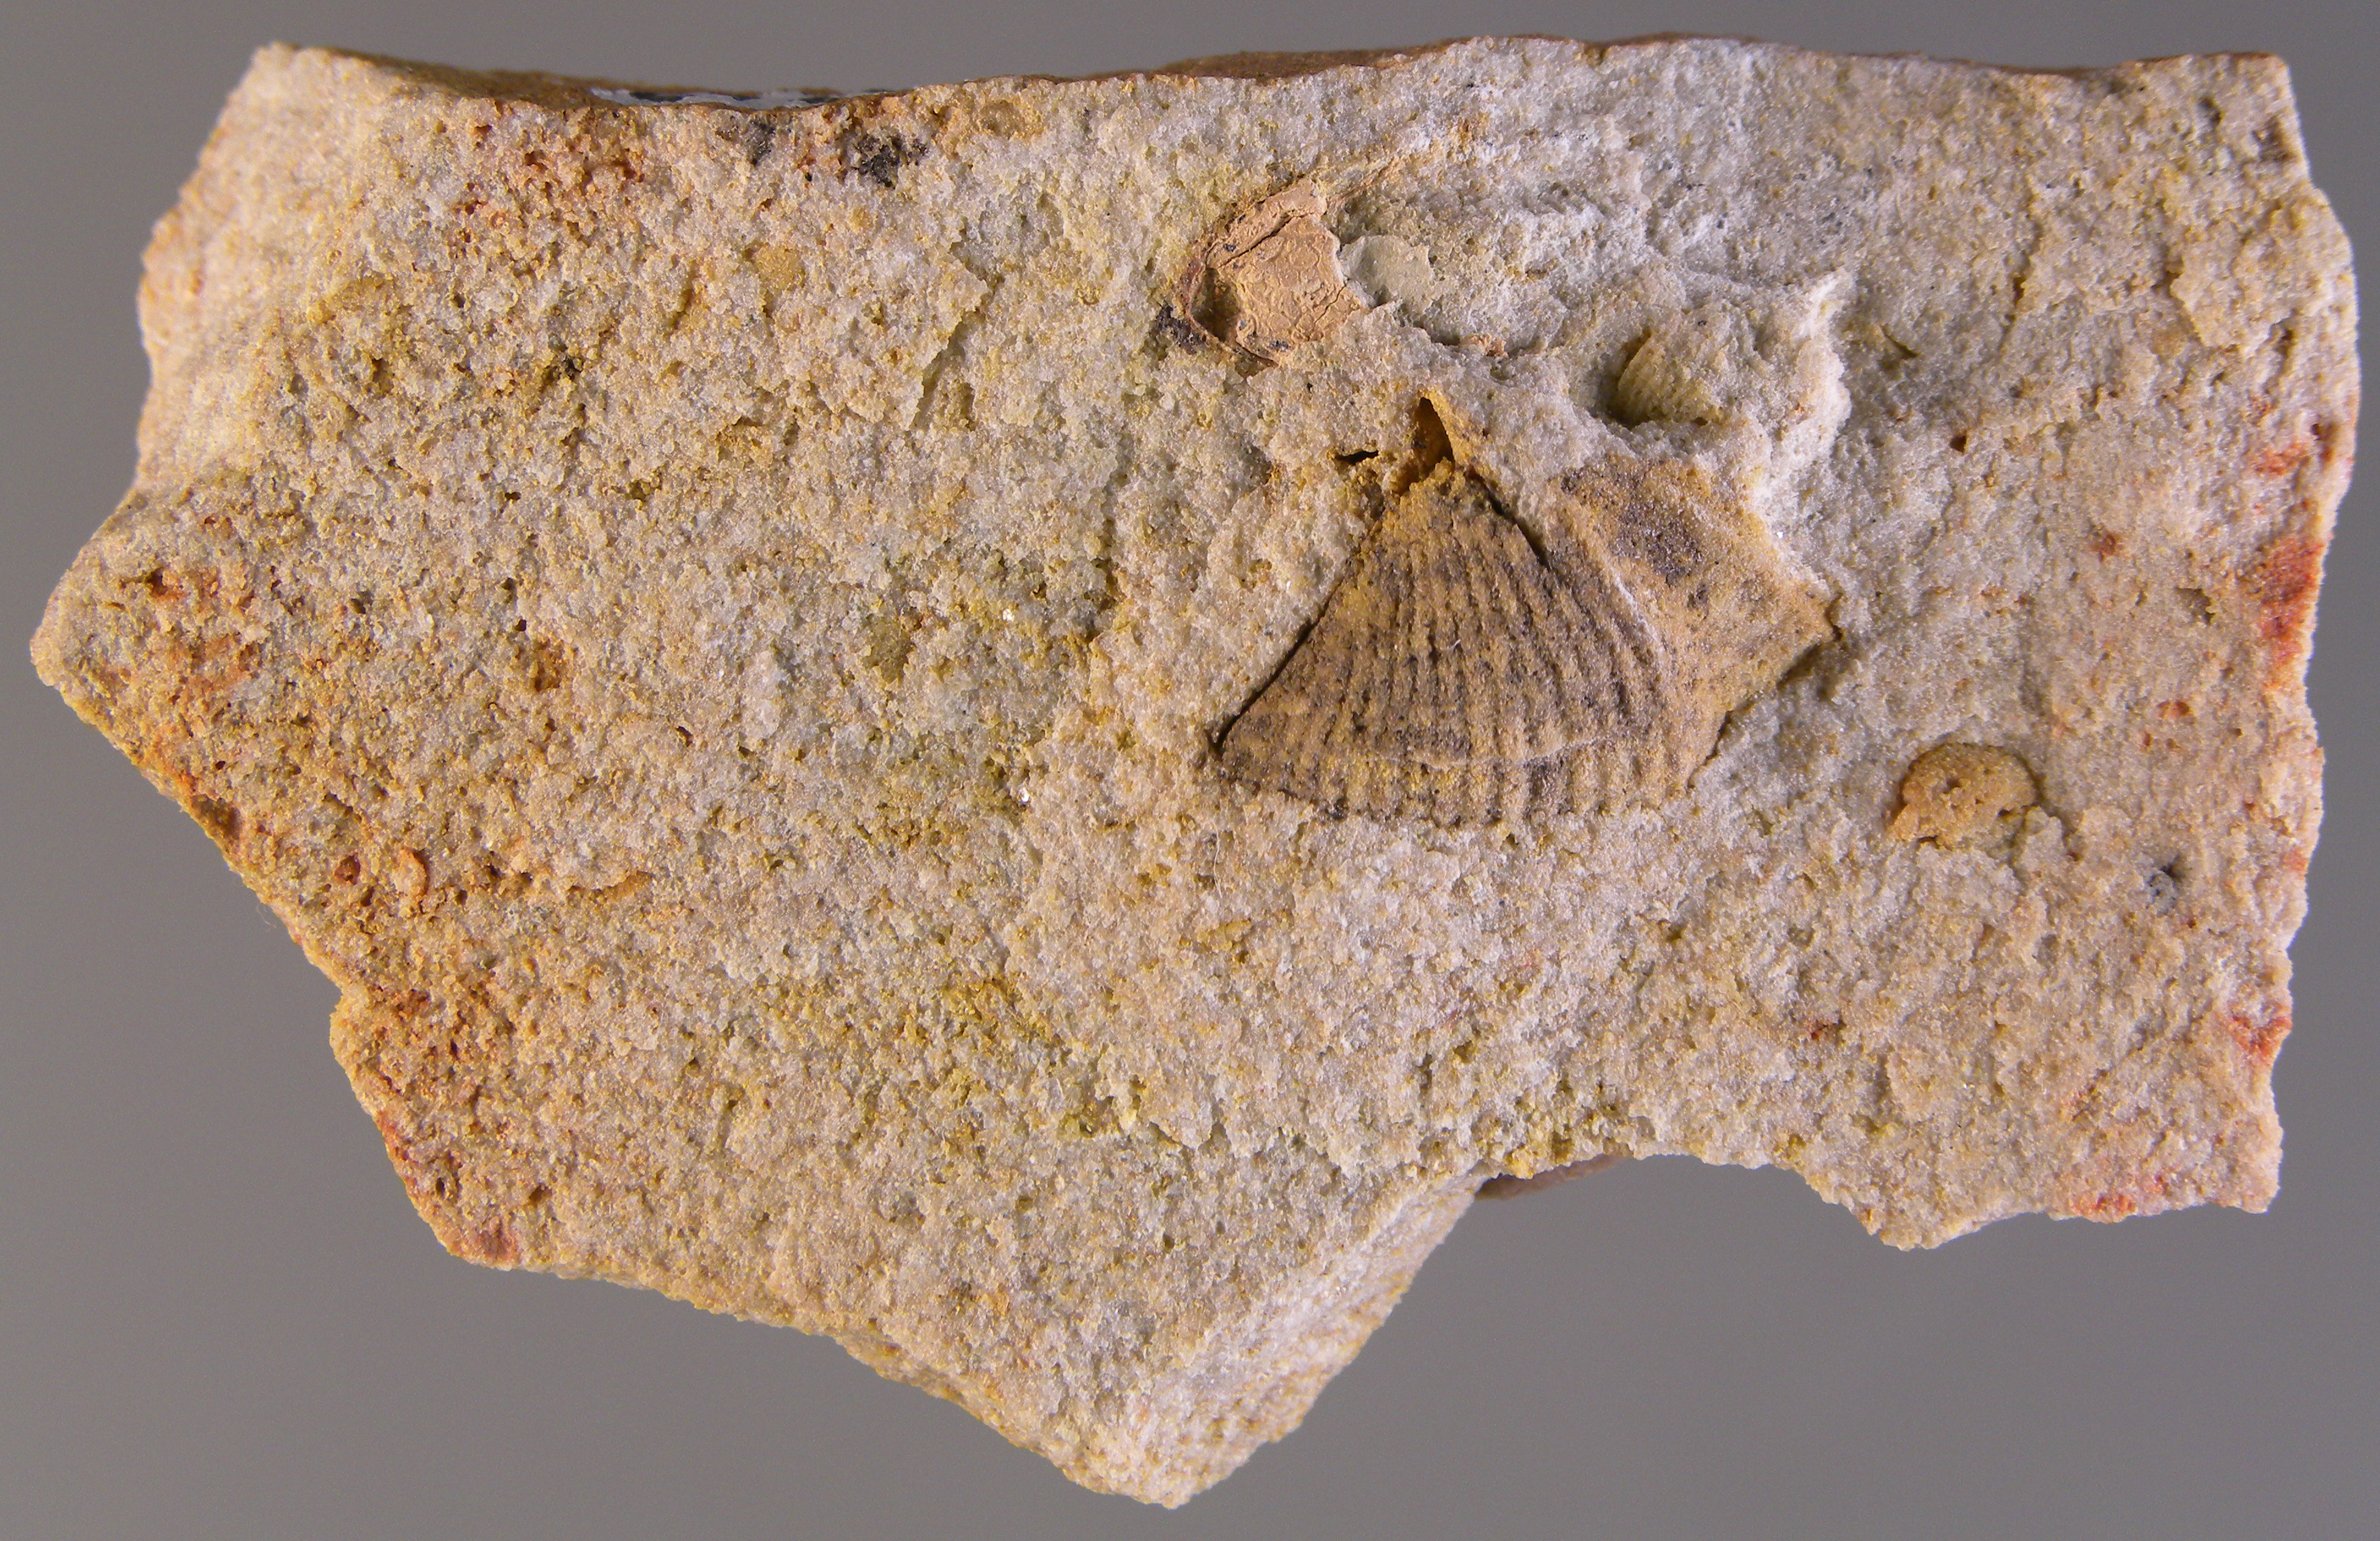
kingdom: Animalia
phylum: Brachiopoda
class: Rhynchonellata
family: Spinocyrtiidae
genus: Subcuspidella
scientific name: Subcuspidella
